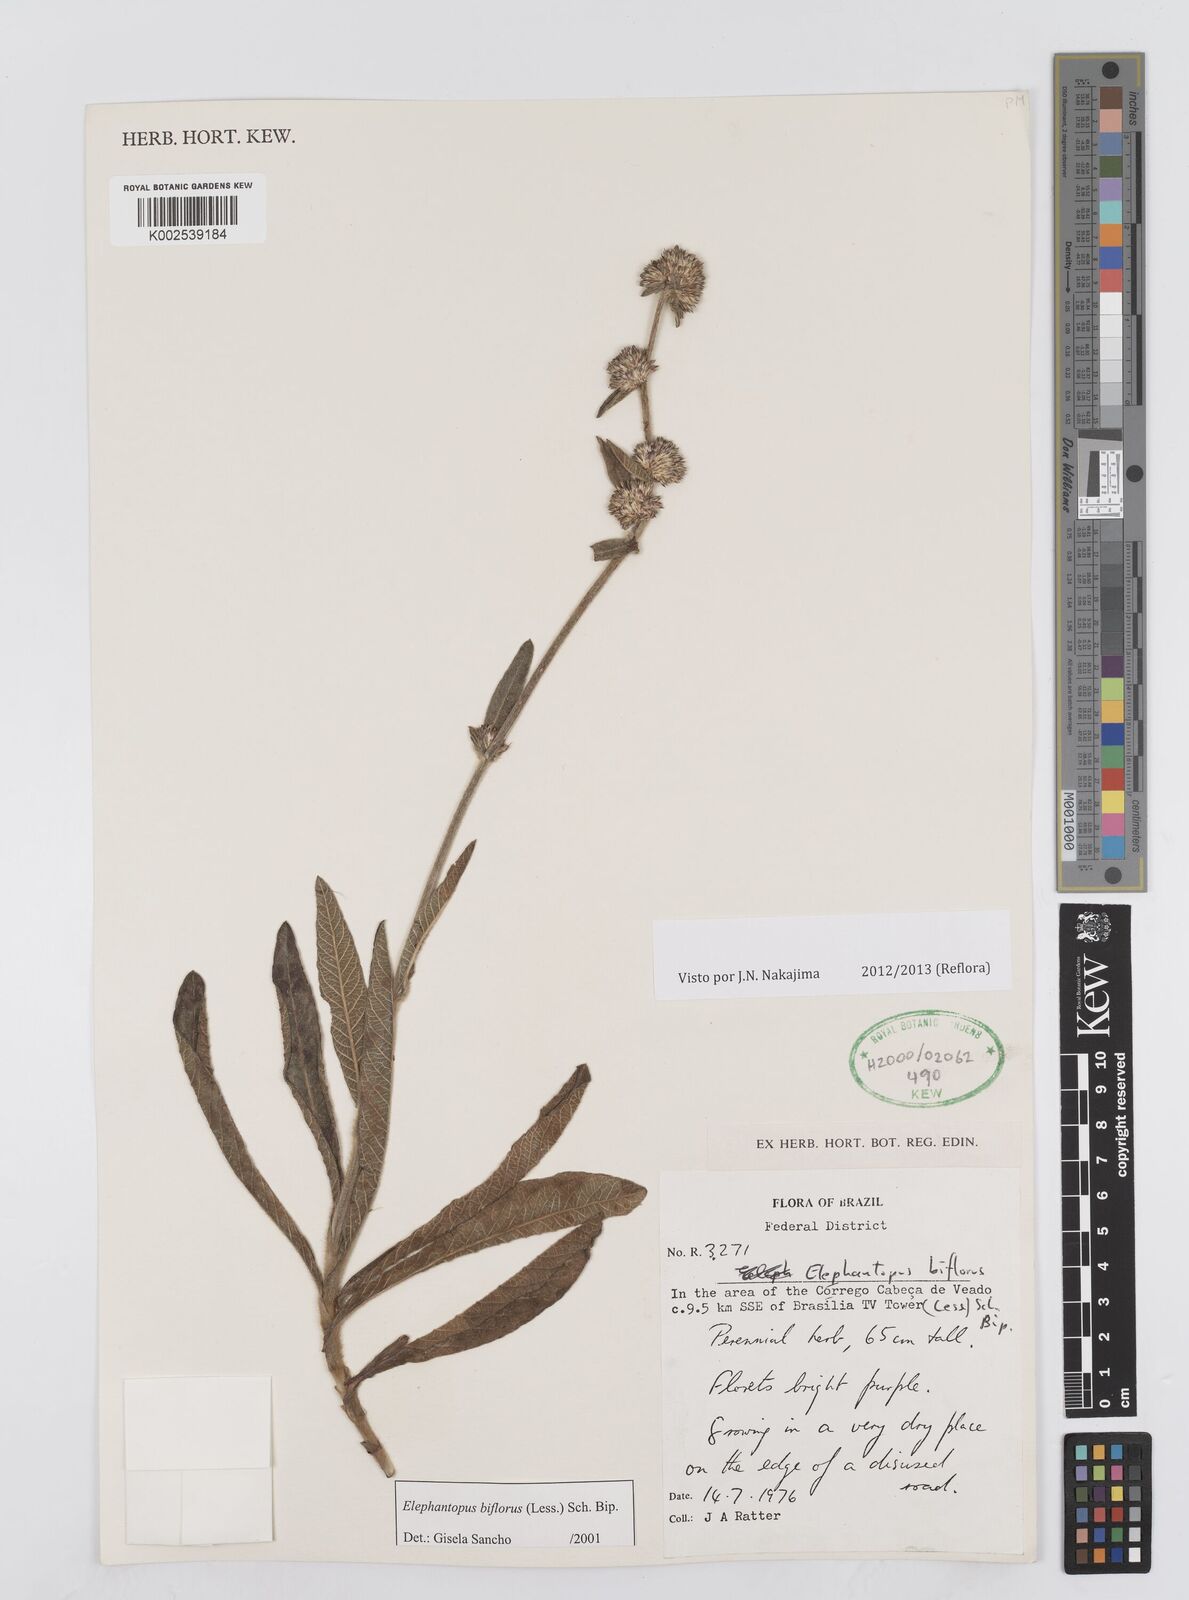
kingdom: Plantae
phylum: Tracheophyta
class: Magnoliopsida
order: Asterales
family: Asteraceae
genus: Elephantopus
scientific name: Elephantopus biflorus
